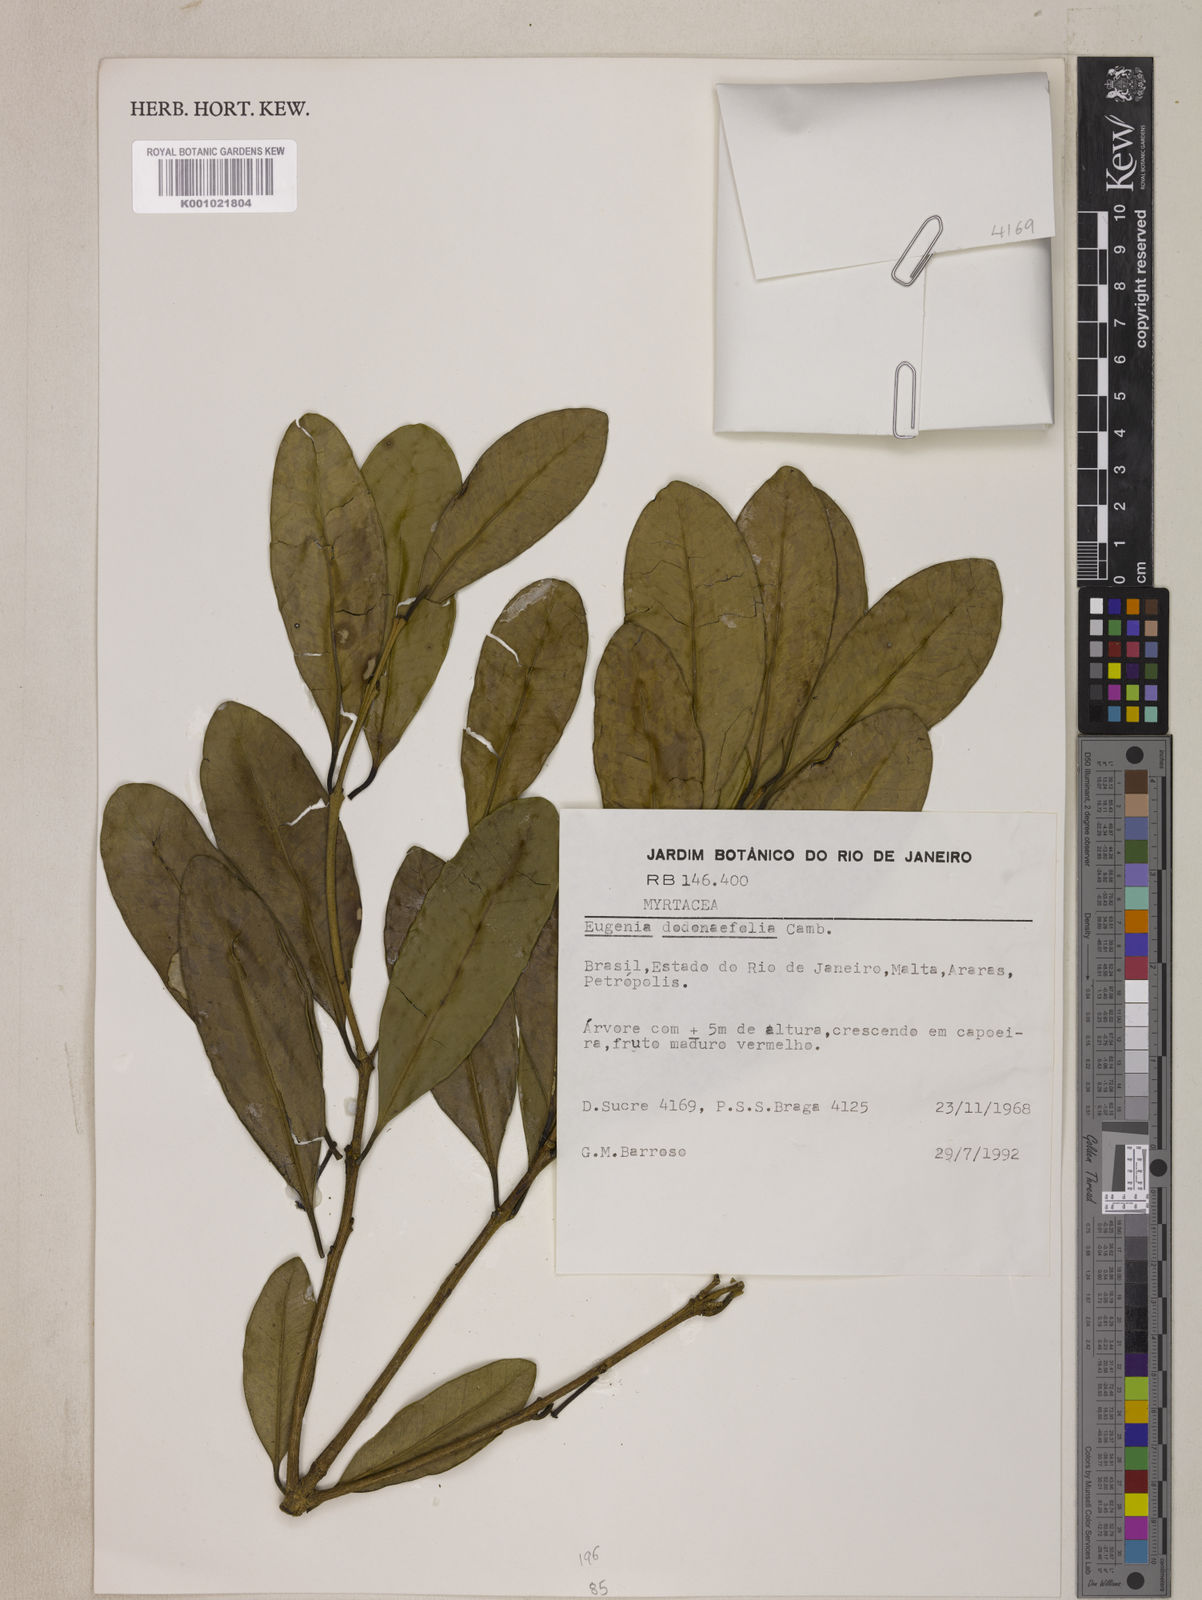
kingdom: Plantae
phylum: Tracheophyta
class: Magnoliopsida
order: Myrtales
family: Myrtaceae
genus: Eugenia
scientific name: Eugenia dodonaeifolia
